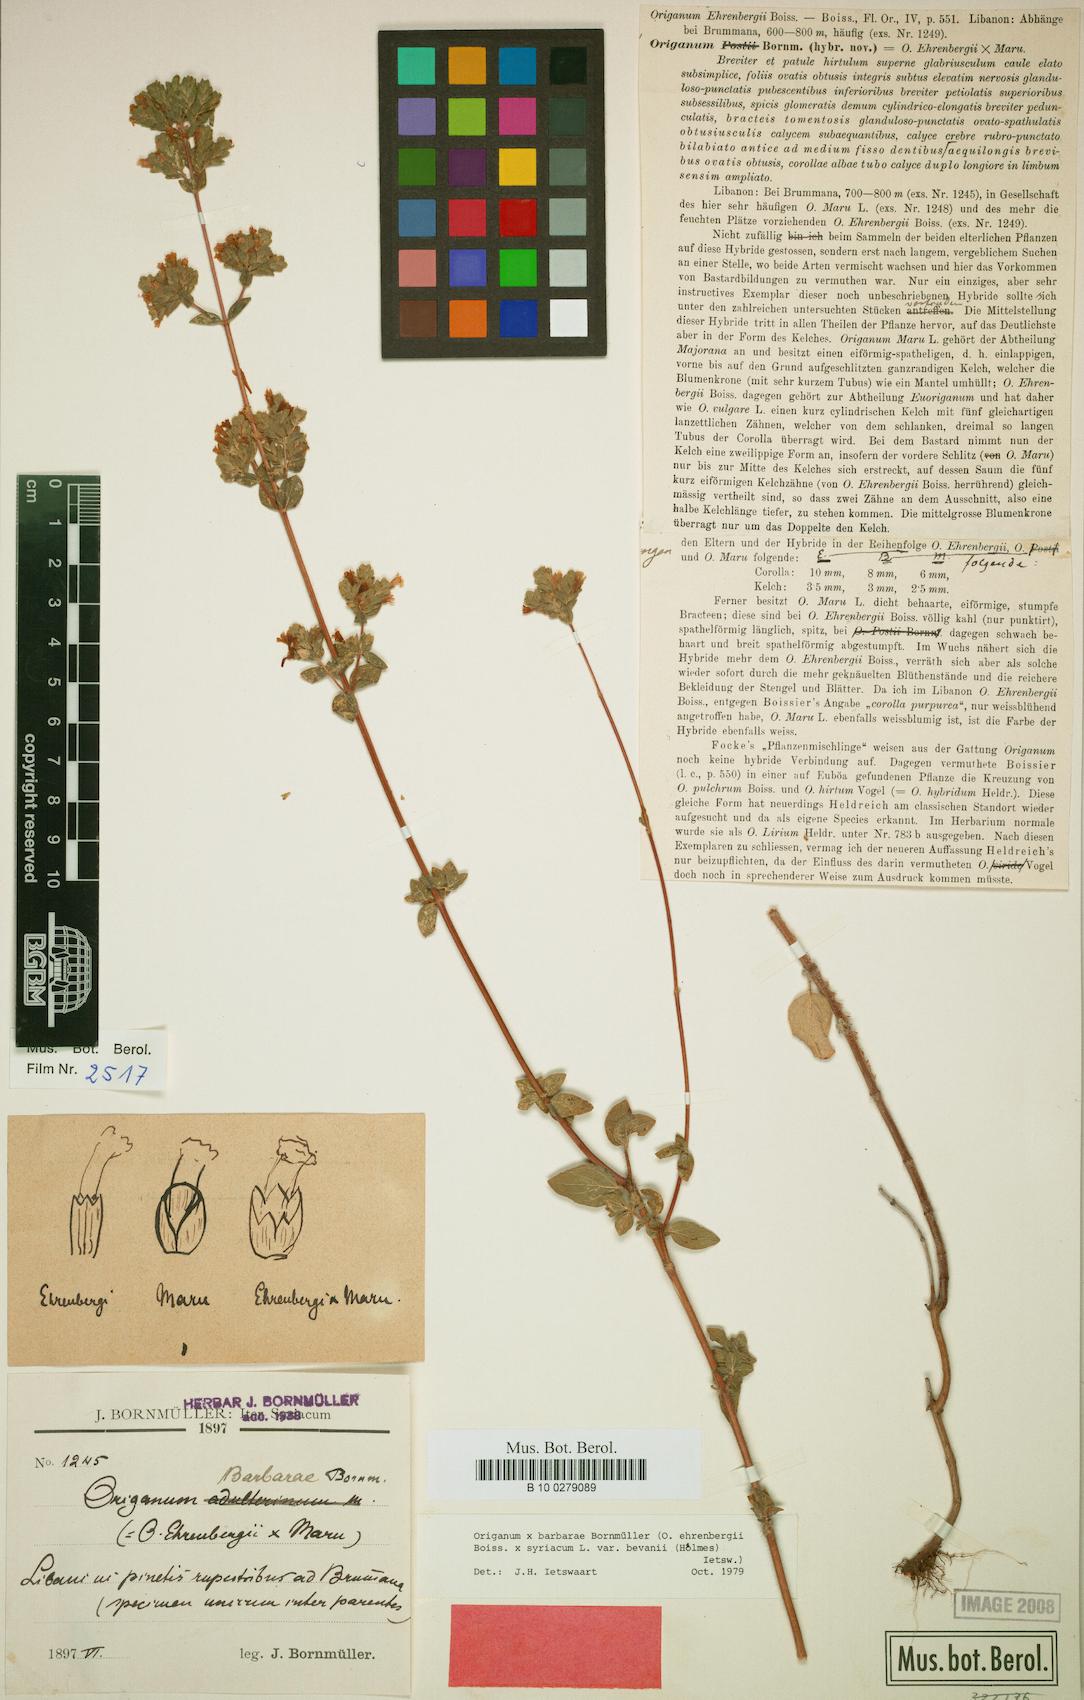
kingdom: Plantae
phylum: Tracheophyta
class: Magnoliopsida
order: Lamiales
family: Lamiaceae
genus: Origanum
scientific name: Origanum barbarae
